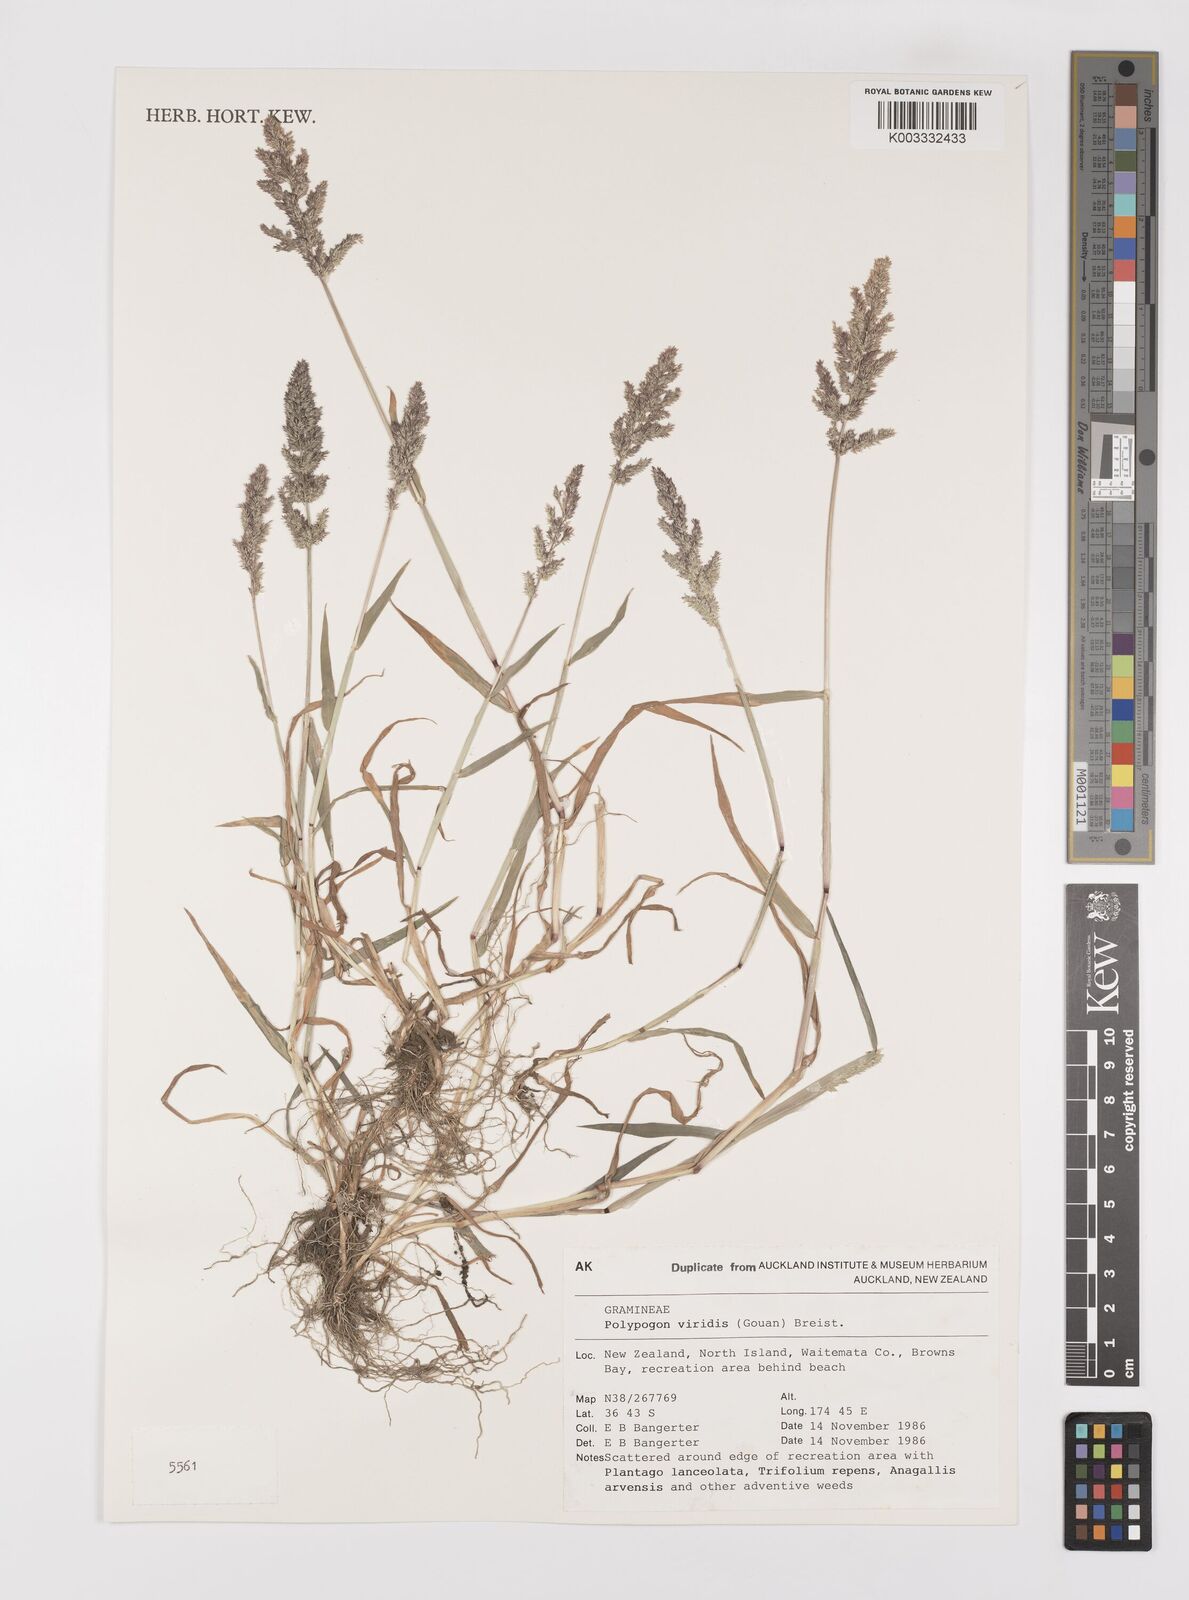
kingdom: Plantae
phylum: Tracheophyta
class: Liliopsida
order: Poales
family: Poaceae
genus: Polypogon
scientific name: Polypogon viridis
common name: Water bent
